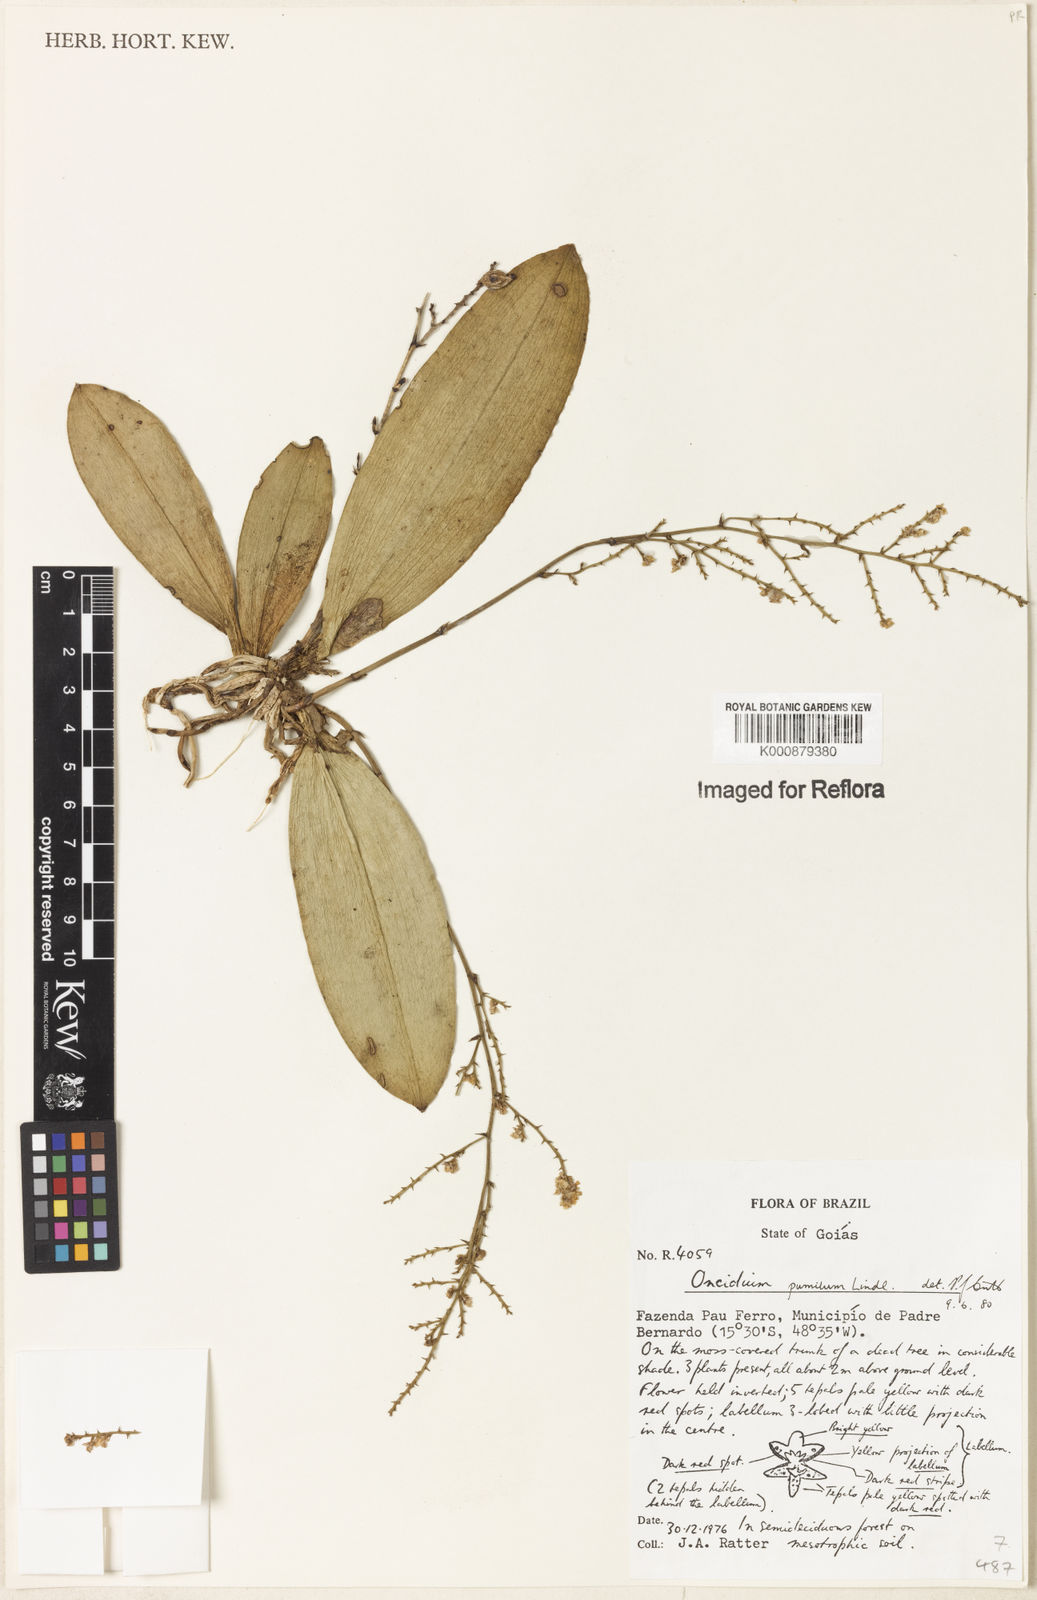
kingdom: Plantae
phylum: Tracheophyta
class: Liliopsida
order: Asparagales
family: Orchidaceae
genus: Trichocentrum
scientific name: Trichocentrum pumilum
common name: Mule-ear orchid
